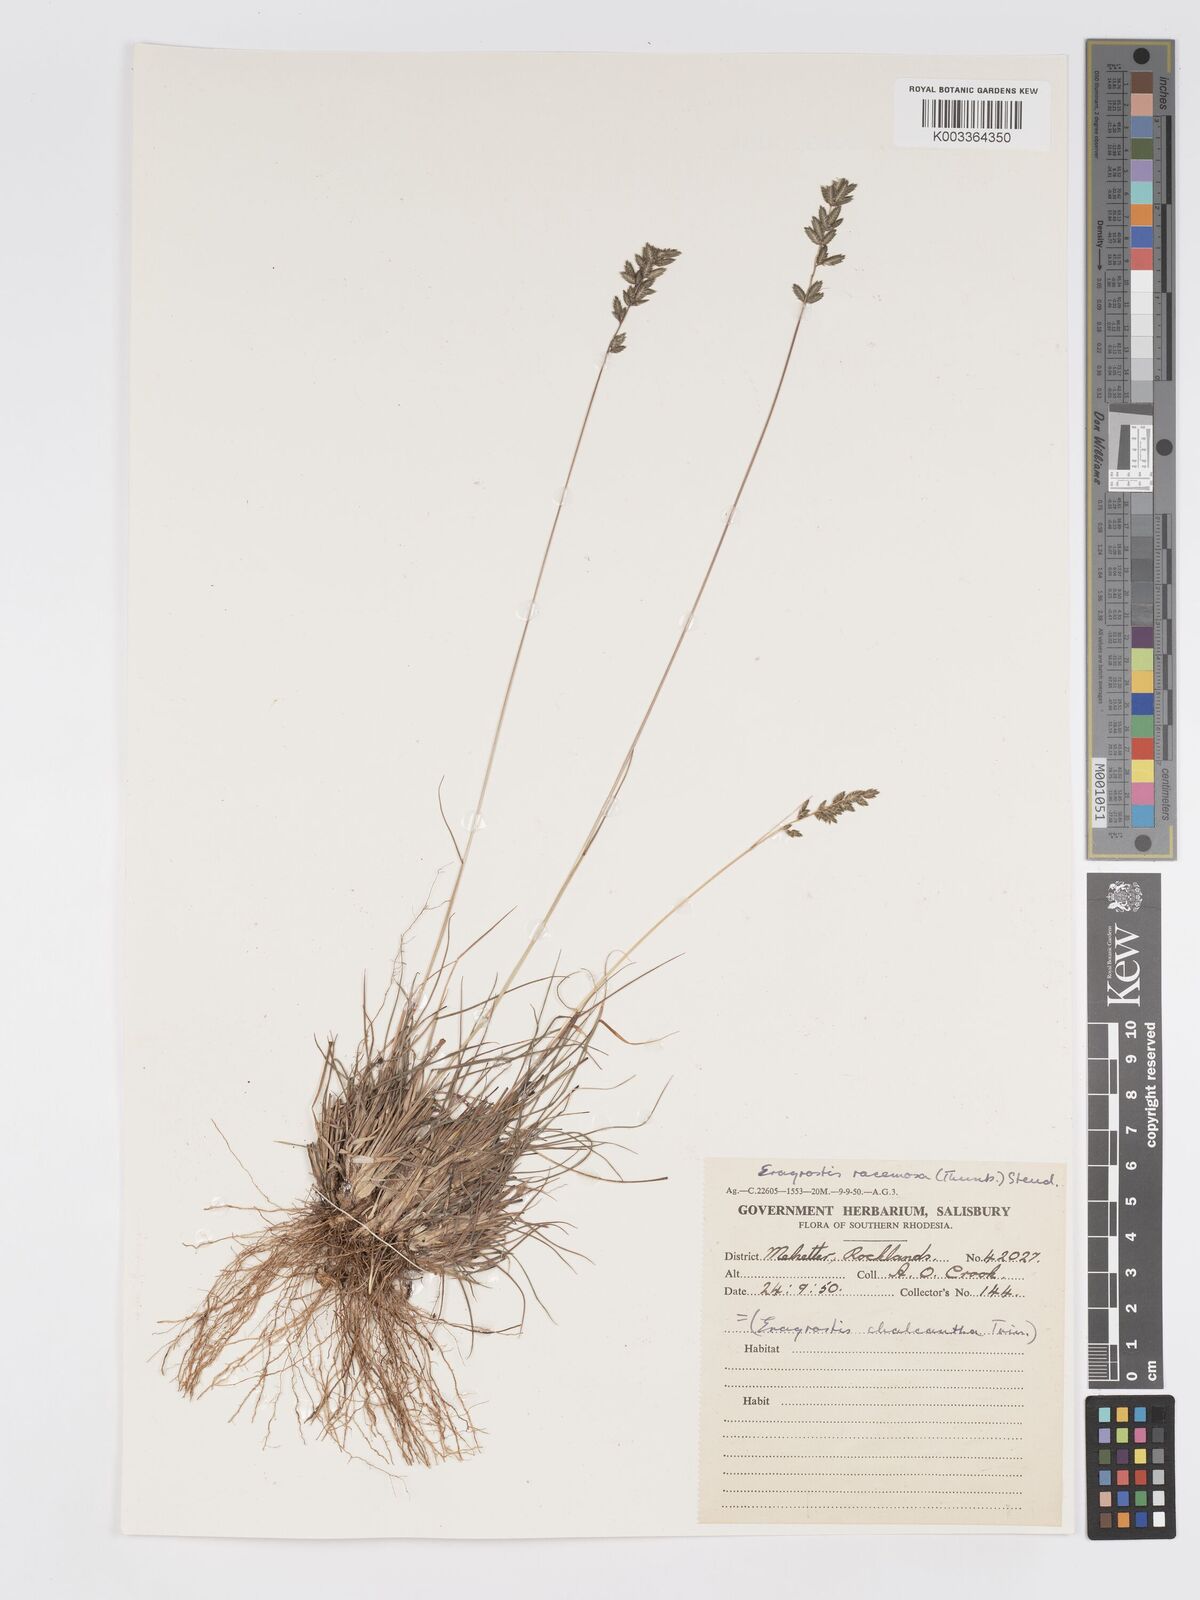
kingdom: Plantae
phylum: Tracheophyta
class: Liliopsida
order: Poales
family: Poaceae
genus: Eragrostis
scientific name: Eragrostis racemosa
